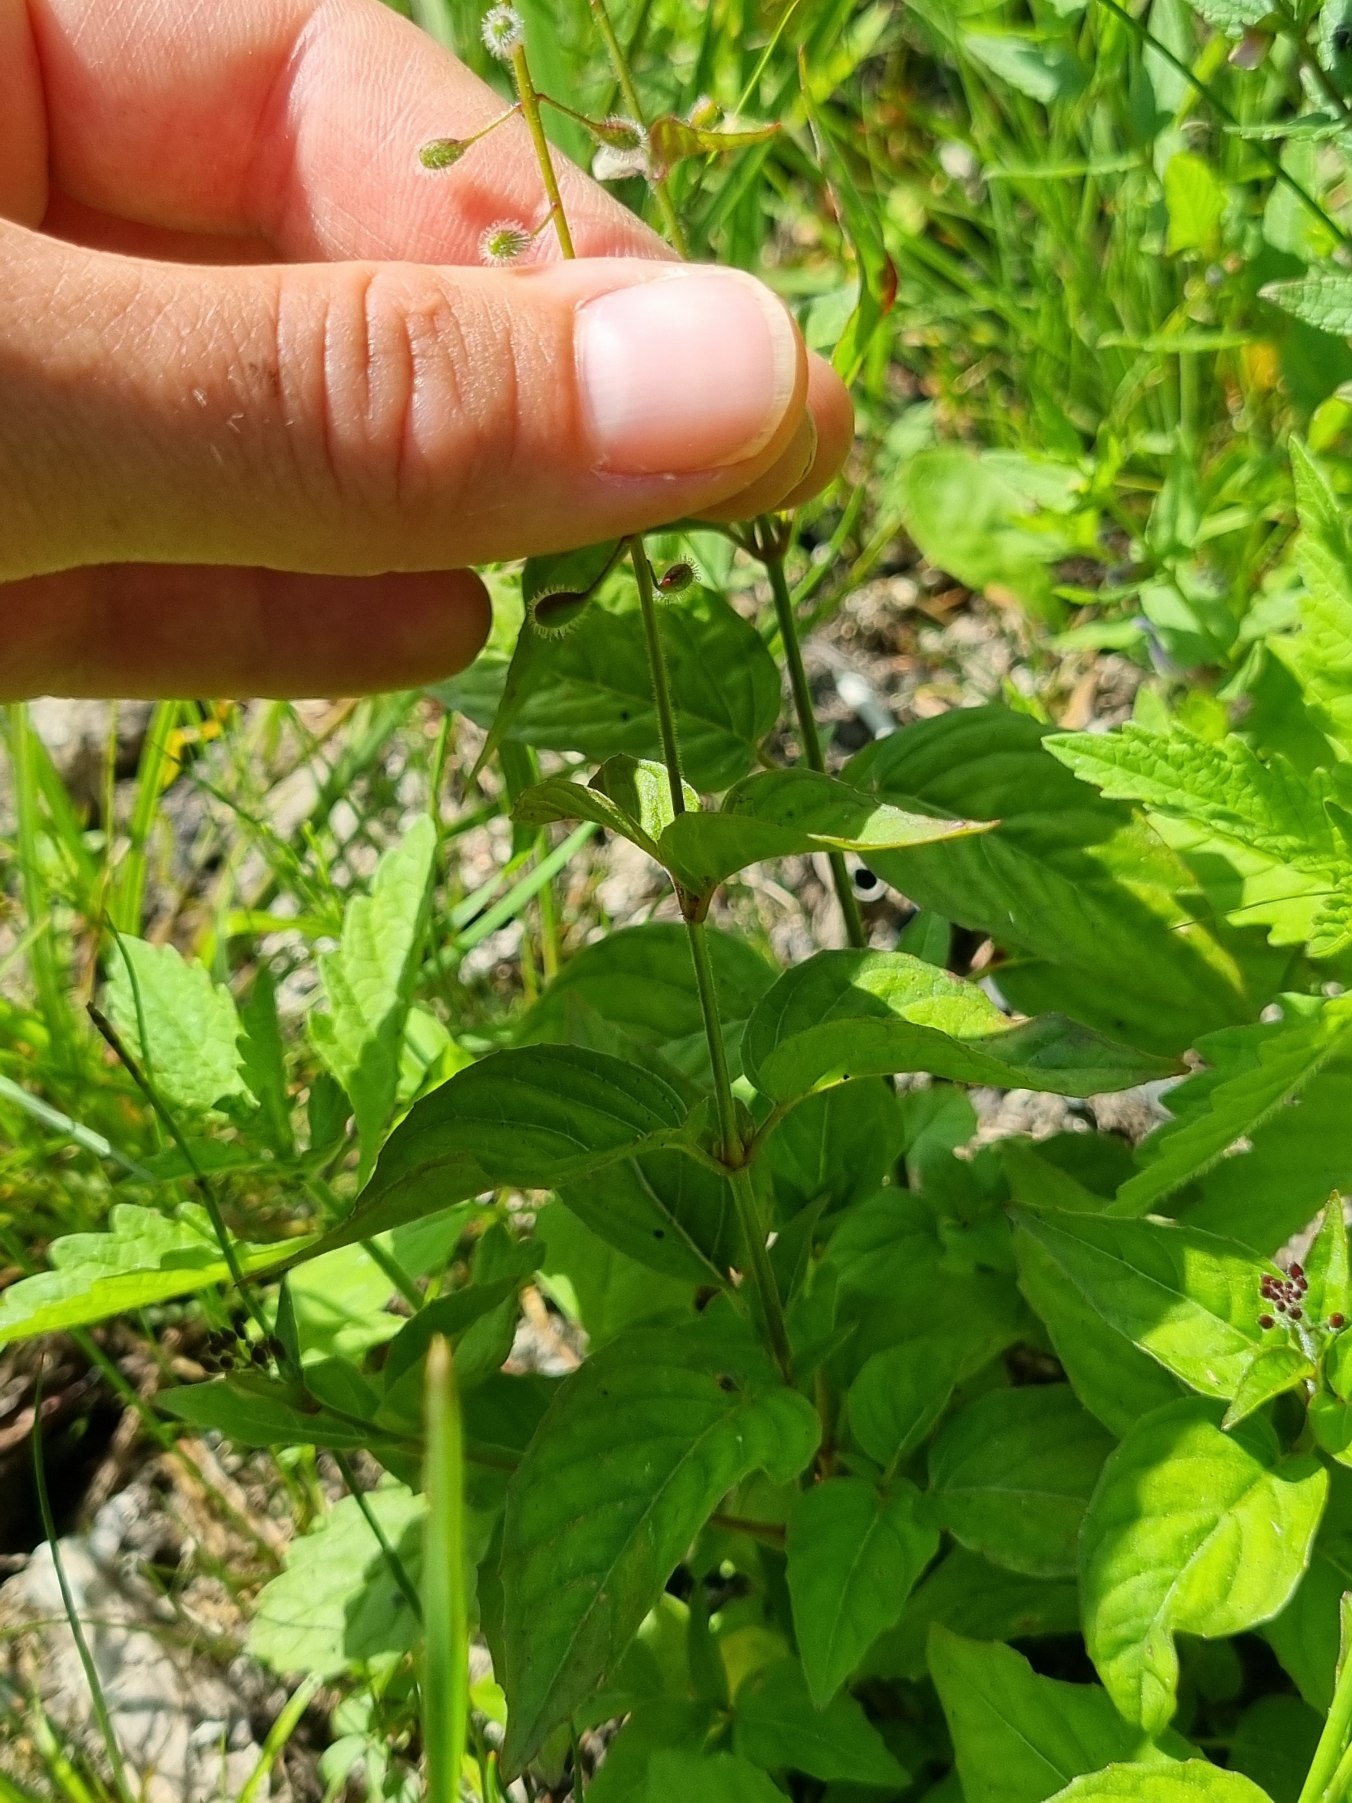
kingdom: Plantae
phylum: Tracheophyta
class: Magnoliopsida
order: Myrtales
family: Onagraceae
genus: Circaea
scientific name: Circaea lutetiana
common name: Dunet steffensurt
